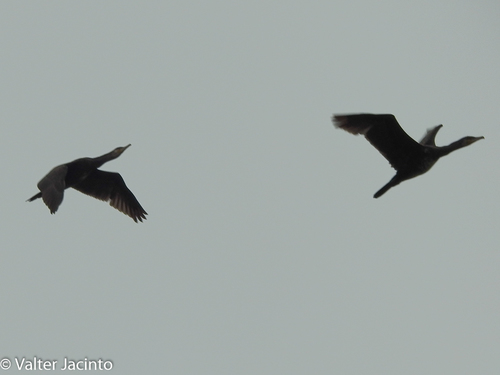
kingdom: Animalia
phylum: Chordata
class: Aves
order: Suliformes
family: Phalacrocoracidae
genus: Phalacrocorax
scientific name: Phalacrocorax carbo
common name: Great cormorant
